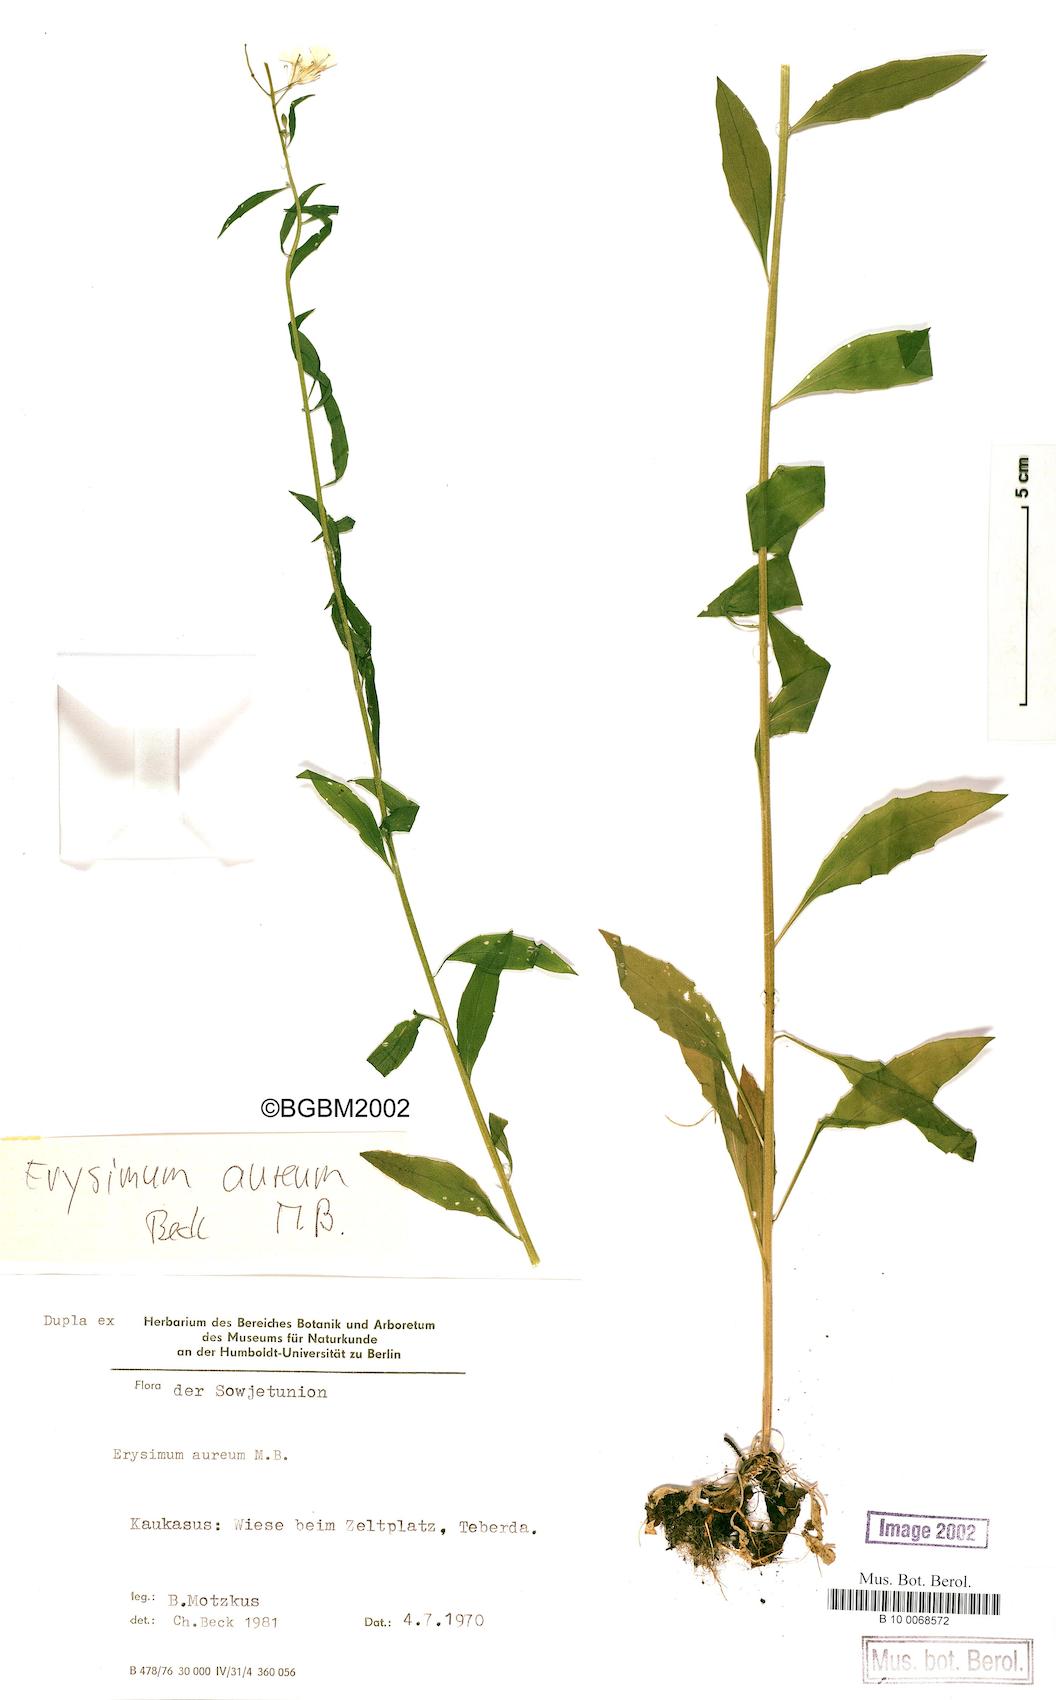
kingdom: Plantae
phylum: Tracheophyta
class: Magnoliopsida
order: Brassicales
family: Brassicaceae
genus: Erysimum
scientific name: Erysimum aureum
